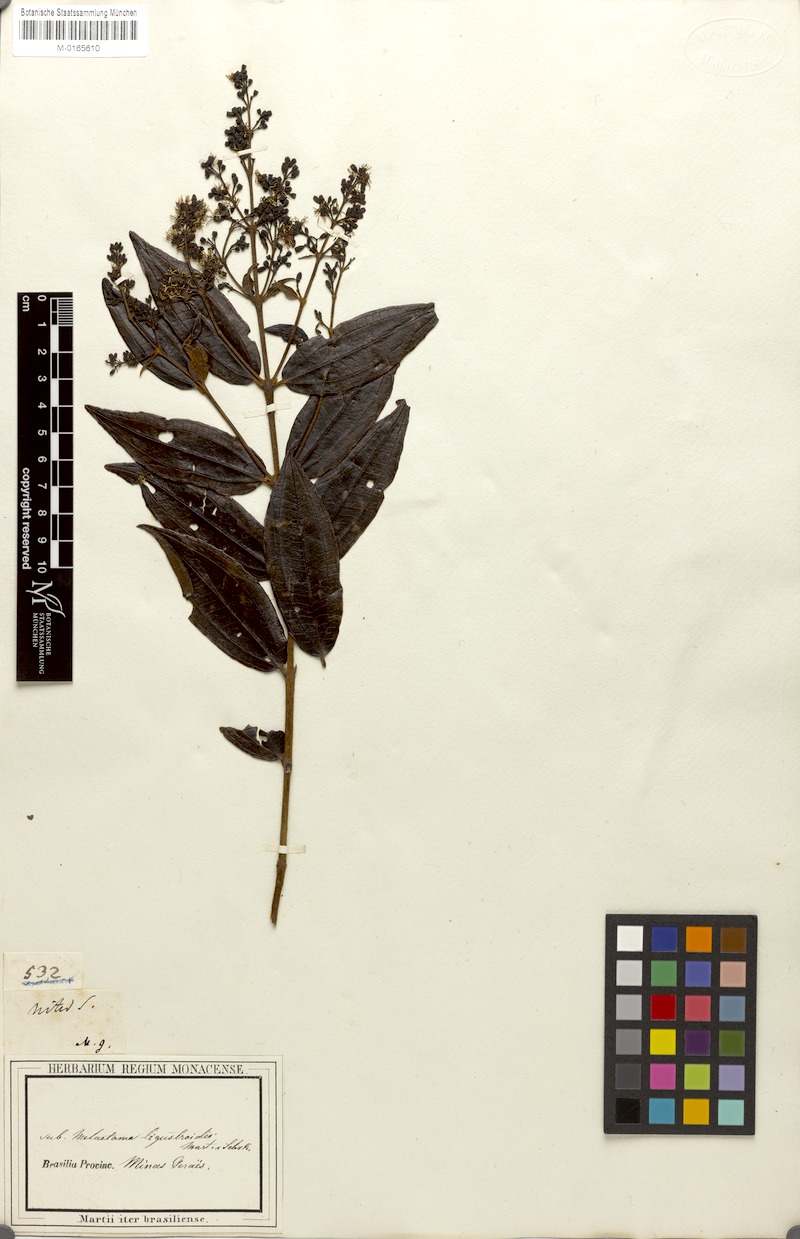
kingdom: Plantae
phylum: Tracheophyta
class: Magnoliopsida
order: Myrtales
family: Melastomataceae
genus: Miconia
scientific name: Miconia ligustroides
